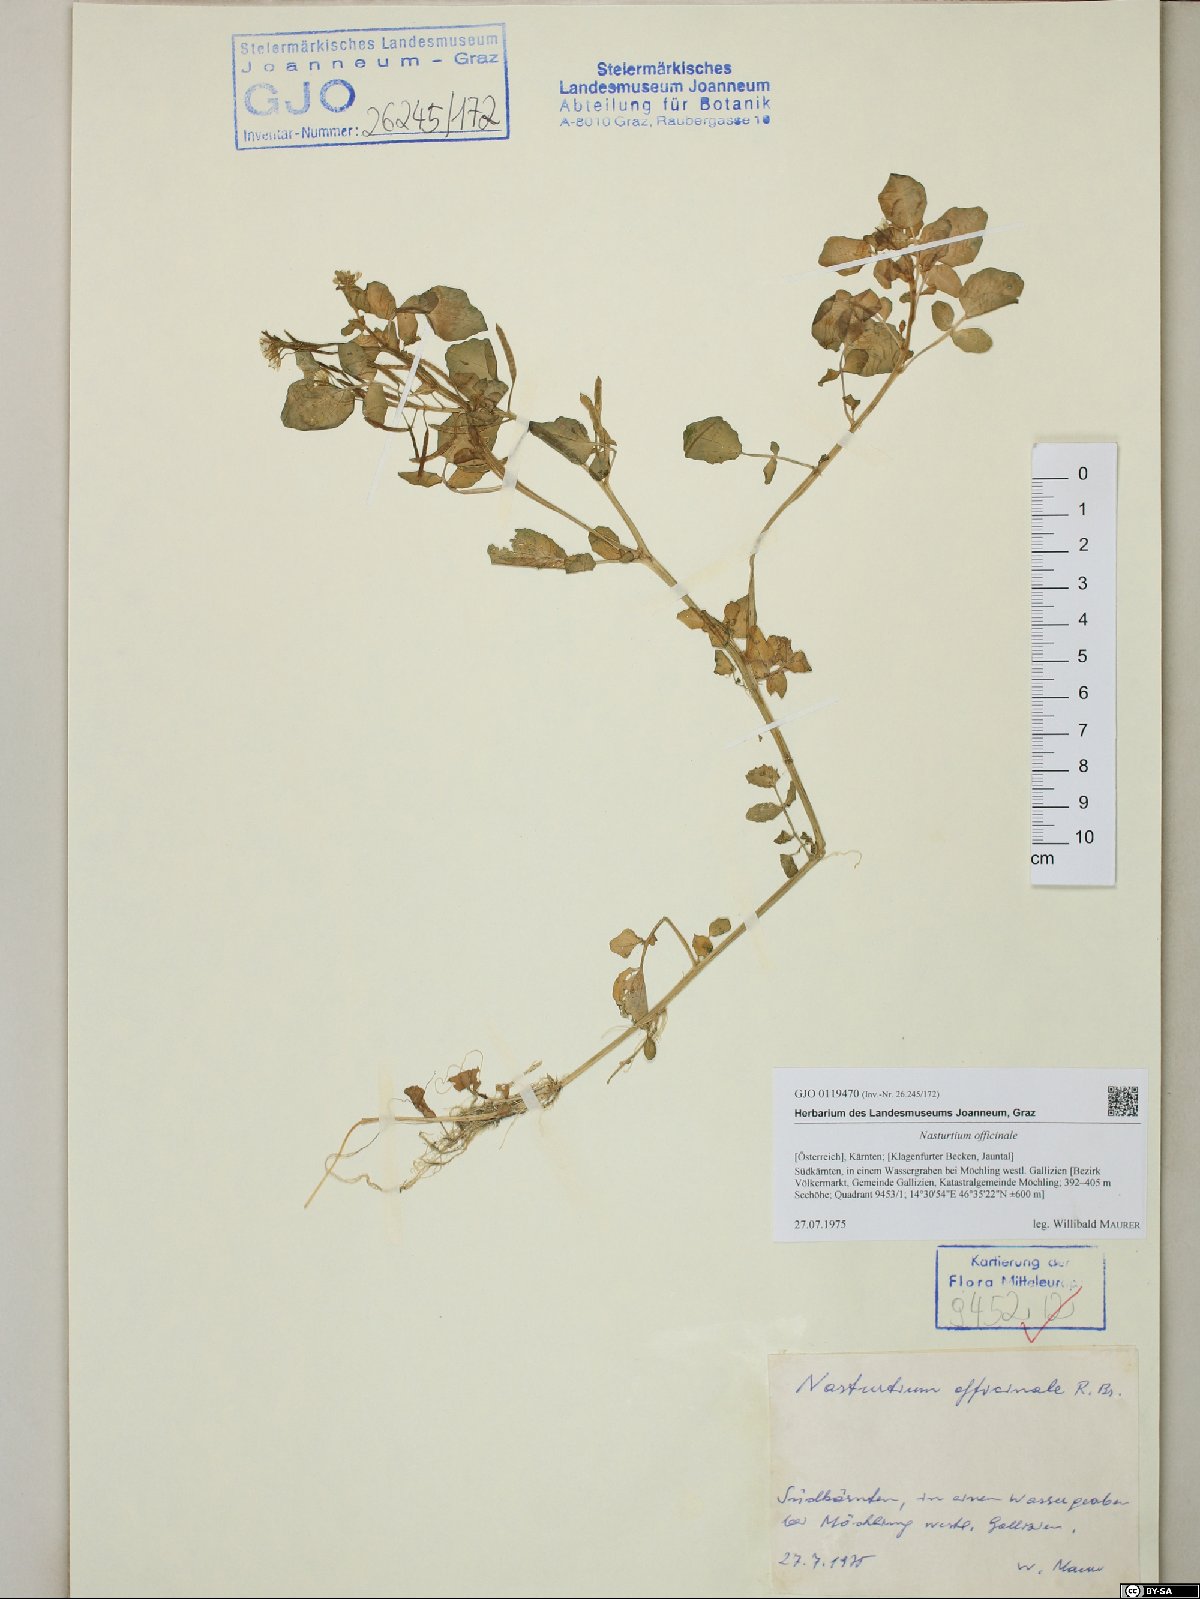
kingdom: Plantae
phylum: Tracheophyta
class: Magnoliopsida
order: Brassicales
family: Brassicaceae
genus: Nasturtium
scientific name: Nasturtium officinale
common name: Watercress
